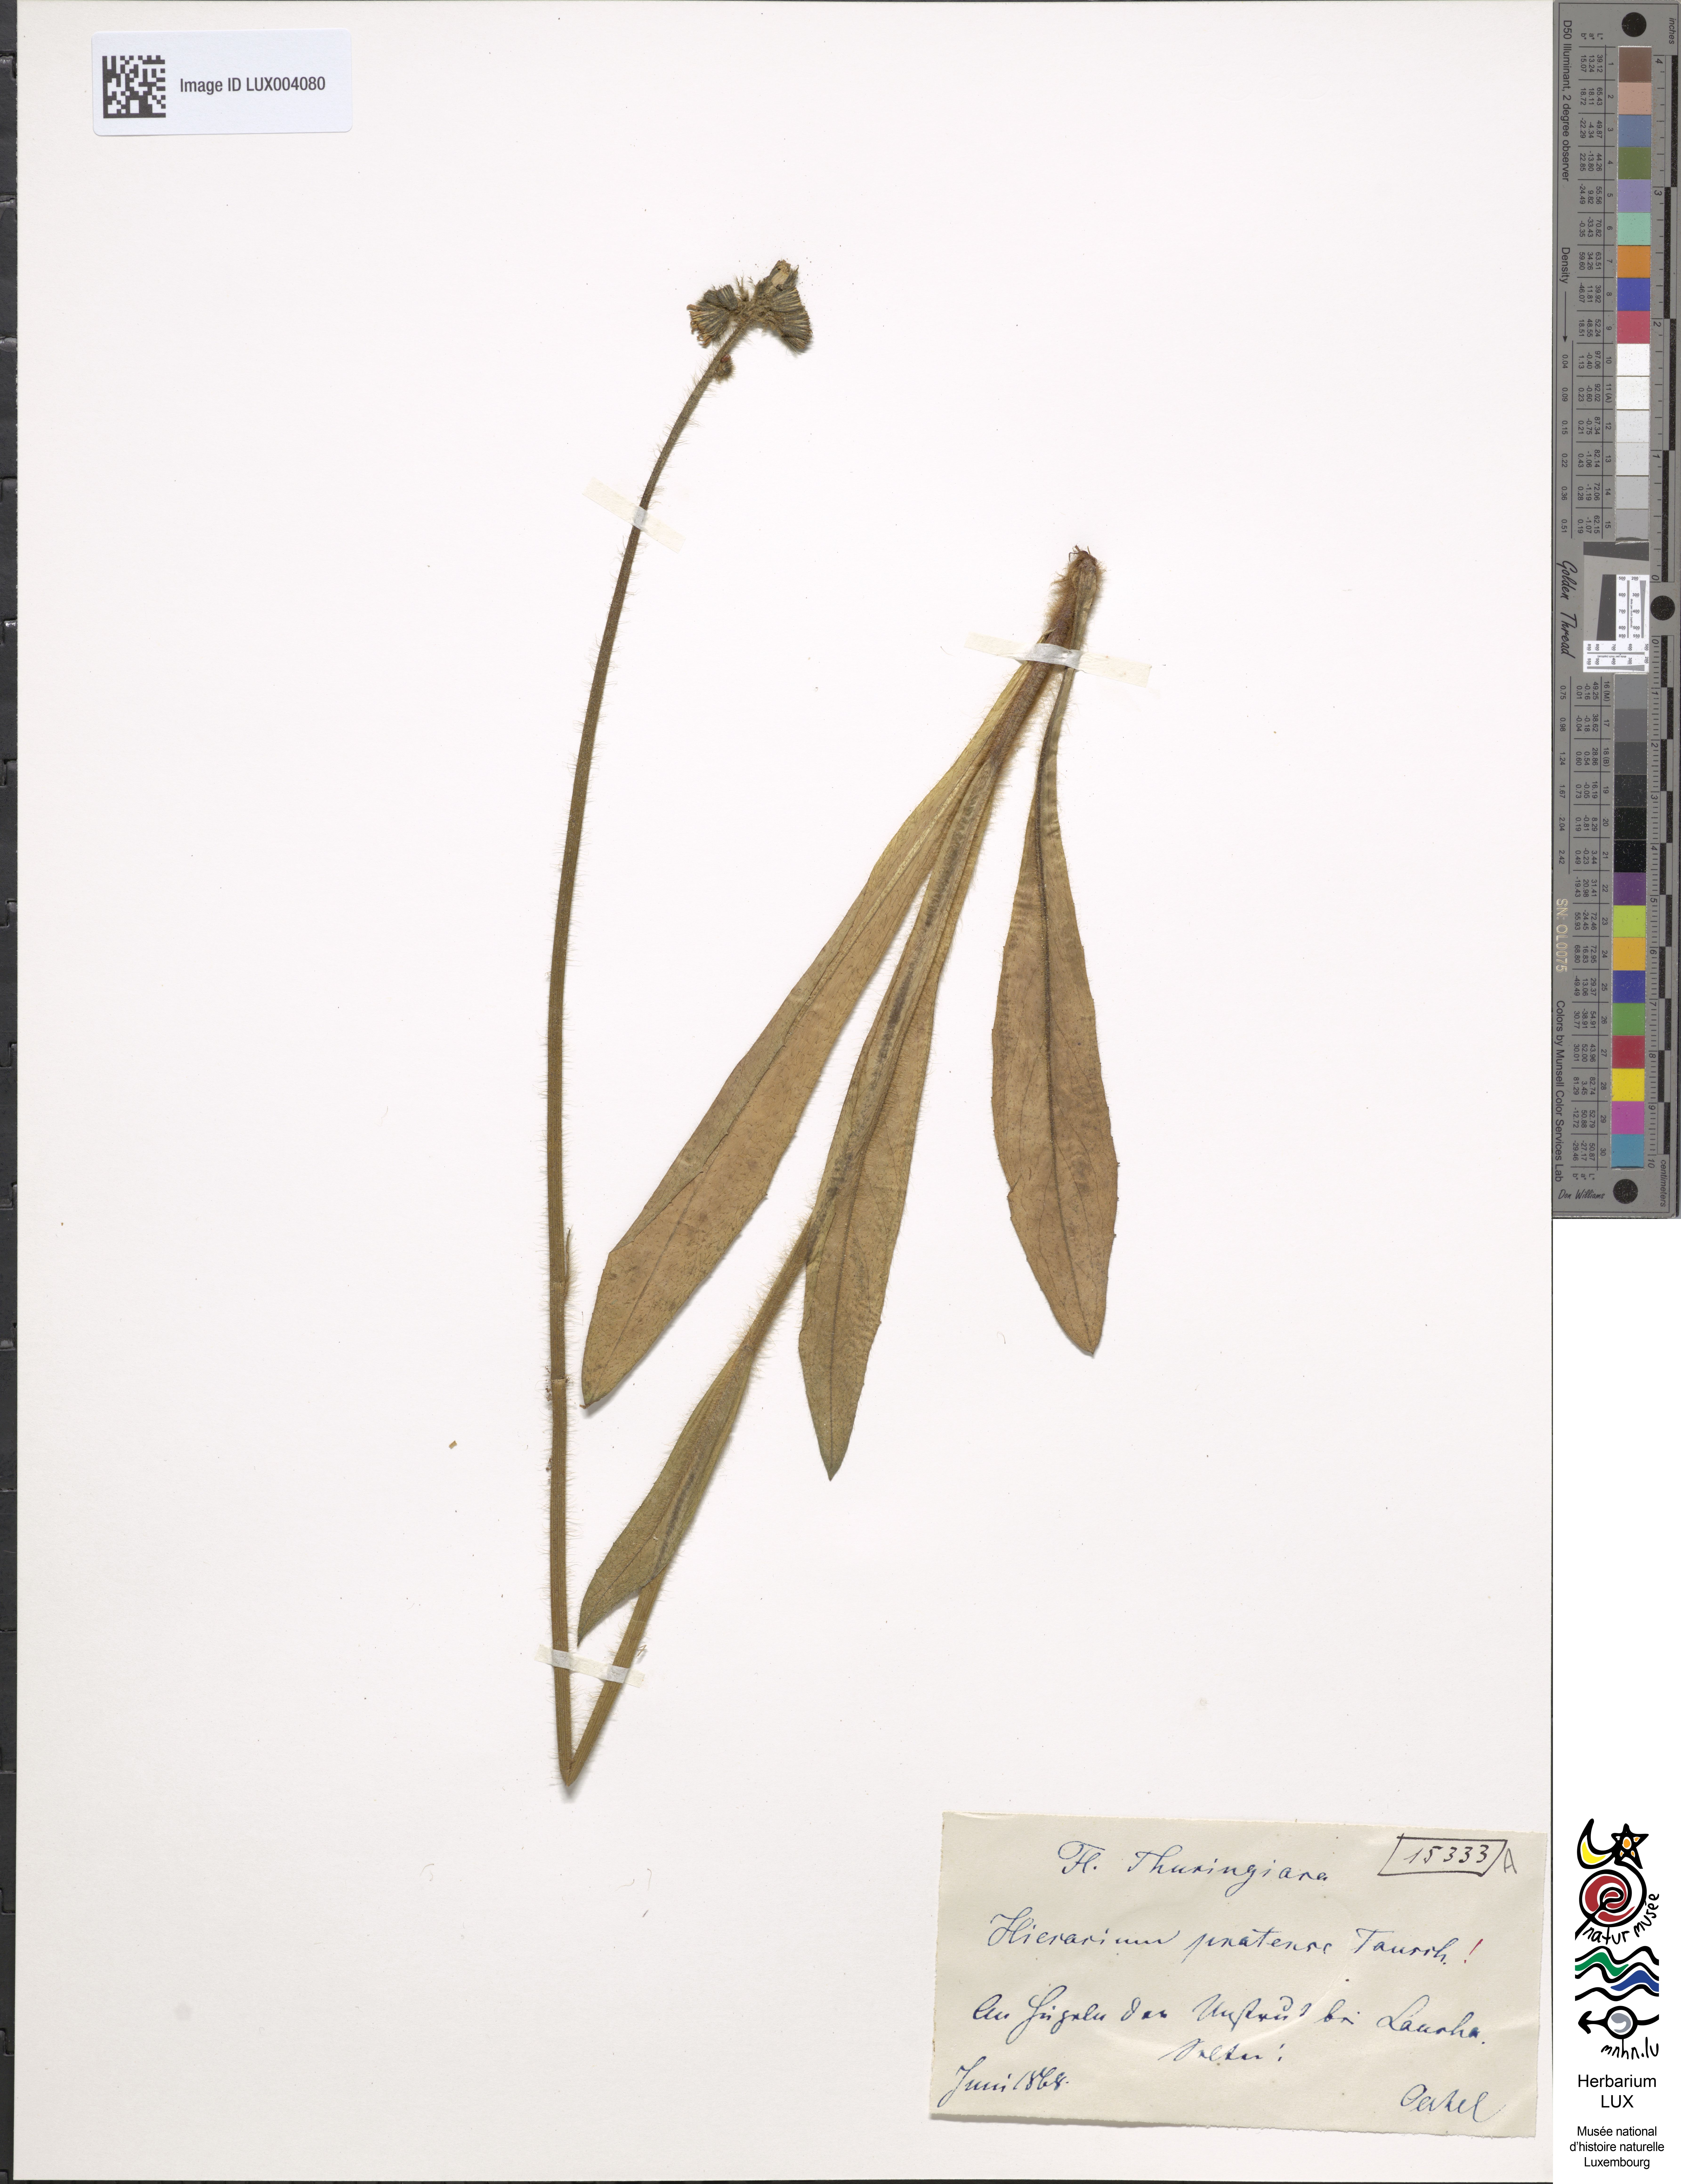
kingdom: Plantae
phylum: Tracheophyta
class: Magnoliopsida
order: Asterales
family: Asteraceae
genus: Pilosella
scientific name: Pilosella caespitosa
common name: Yellow fox-and-cubs
